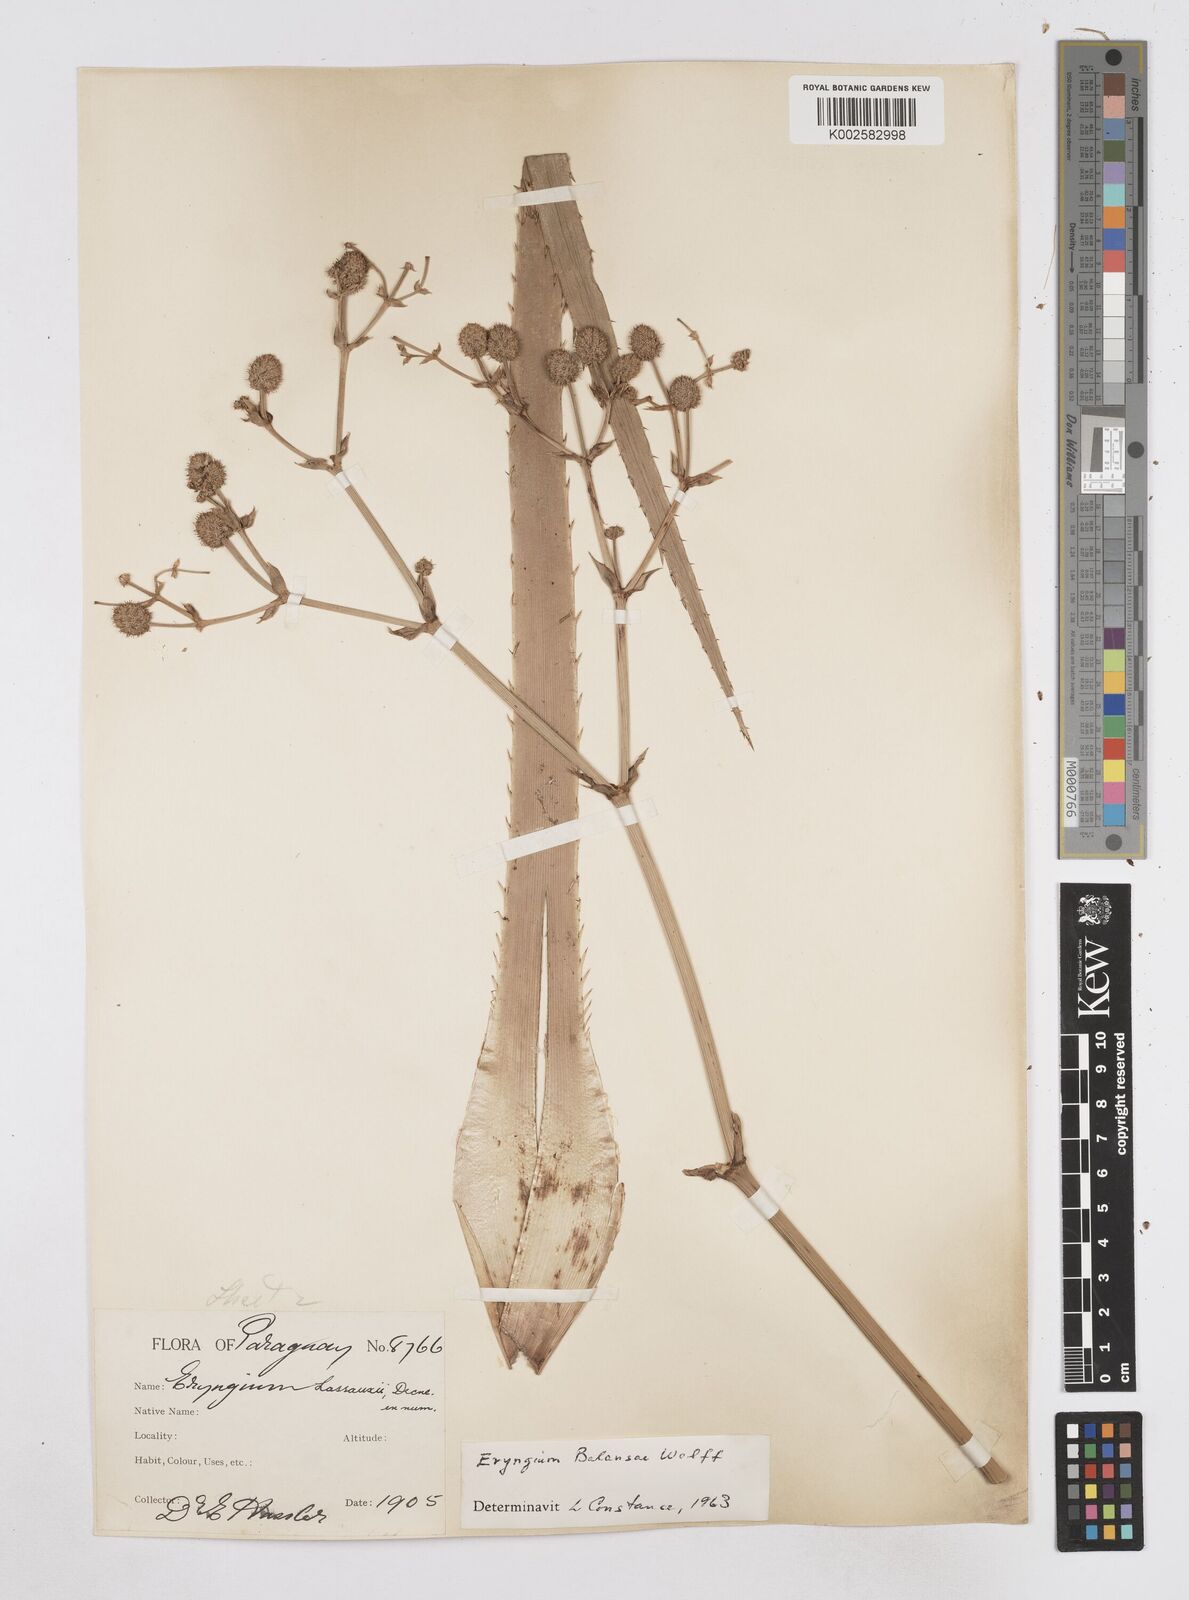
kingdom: Plantae
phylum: Tracheophyta
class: Magnoliopsida
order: Apiales
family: Apiaceae
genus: Eryngium
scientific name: Eryngium balansae
